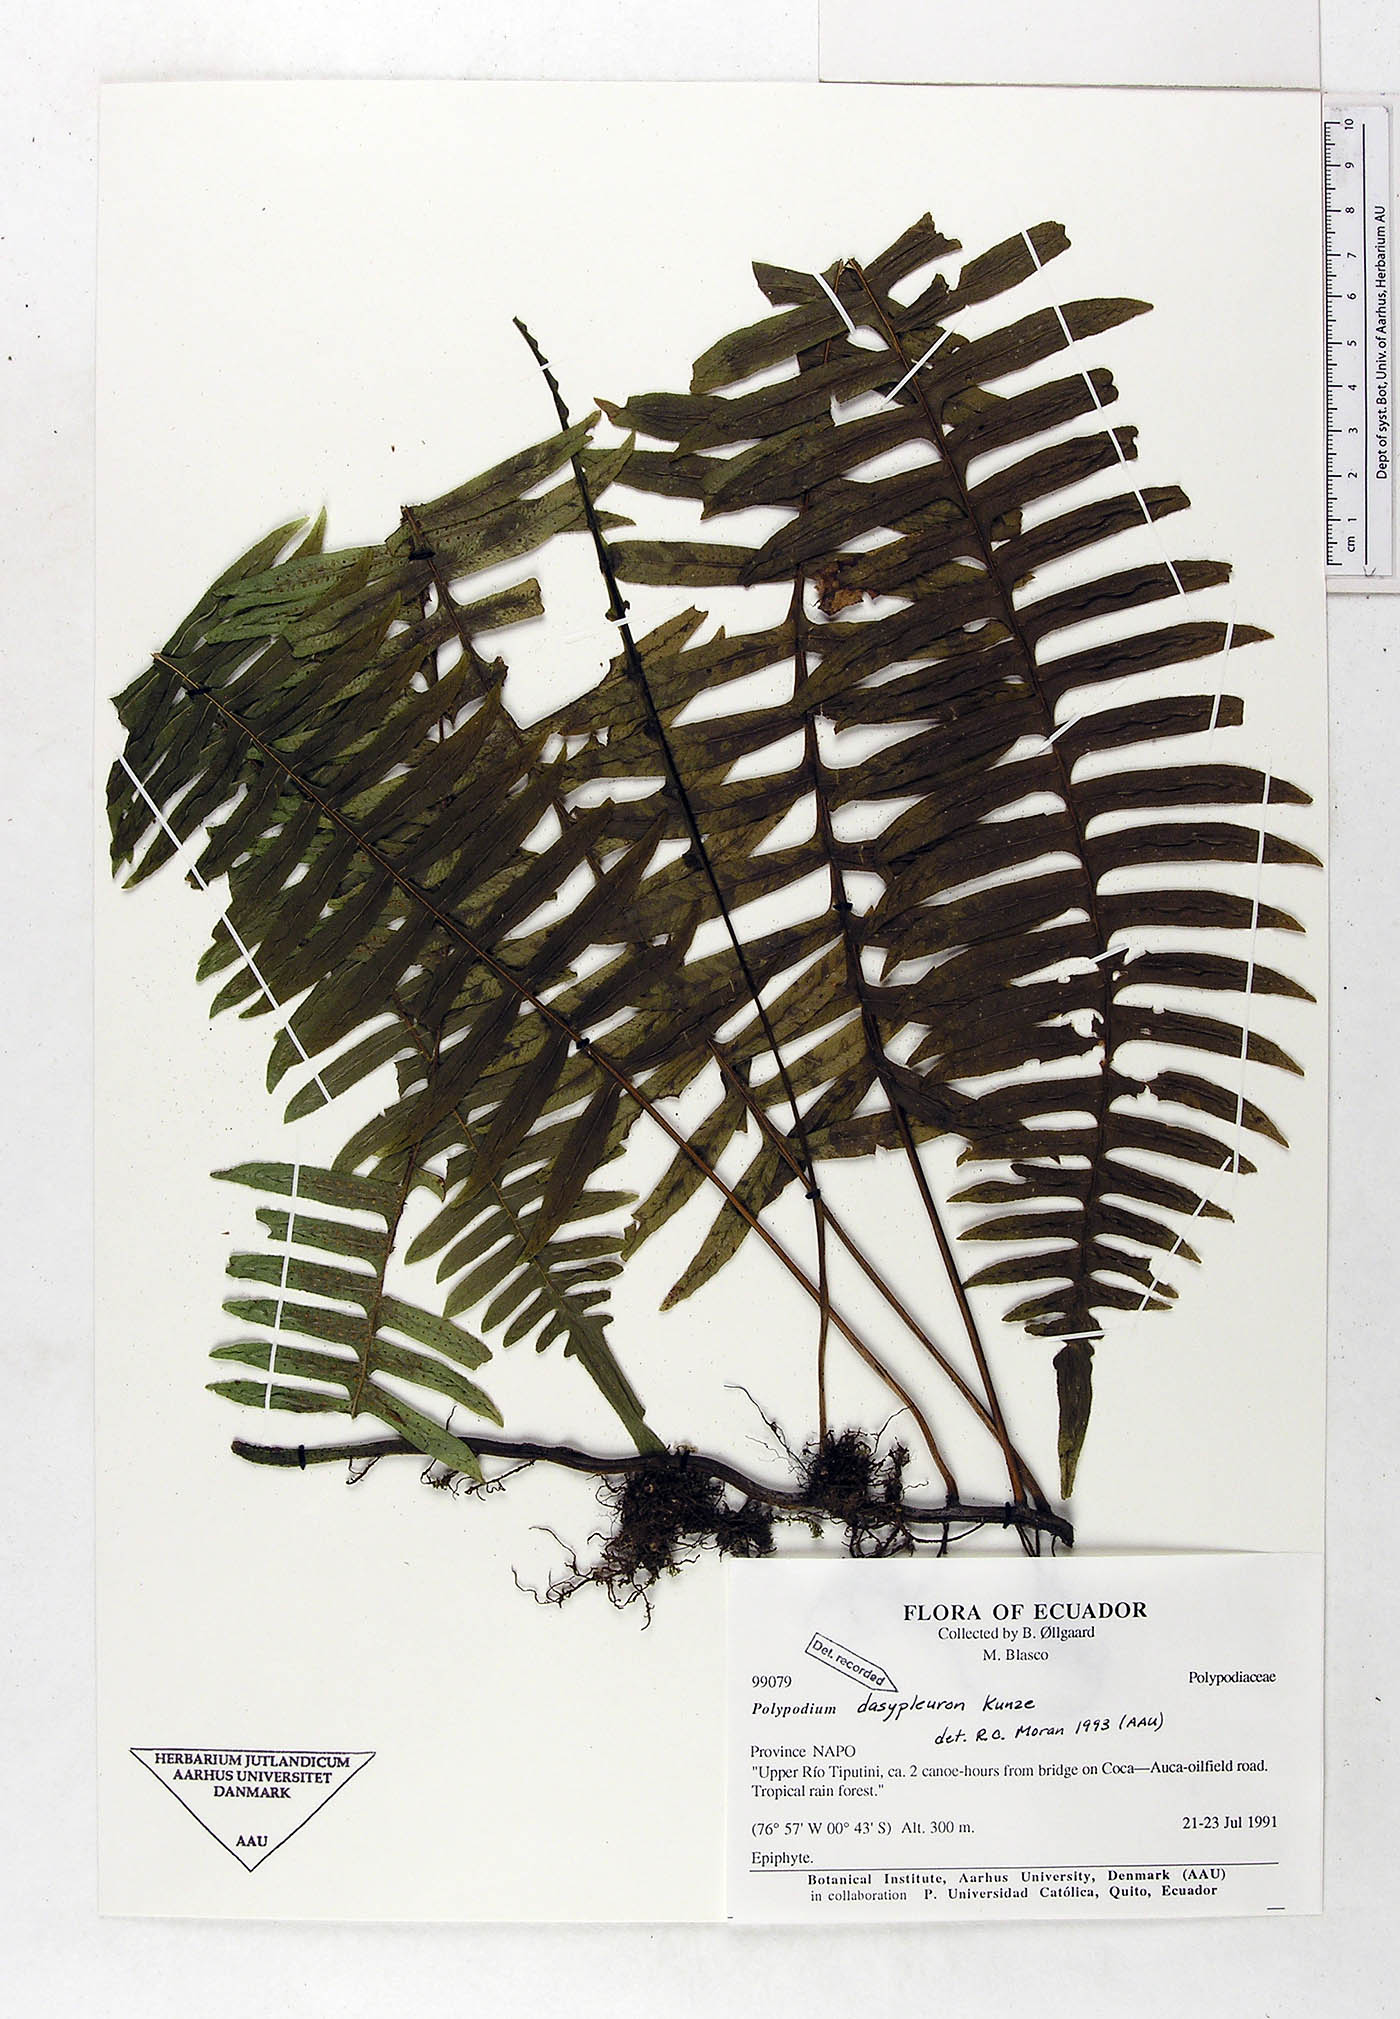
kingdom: Plantae
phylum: Tracheophyta
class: Polypodiopsida
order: Polypodiales
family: Polypodiaceae
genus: Serpocaulon
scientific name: Serpocaulon dasypleuron
